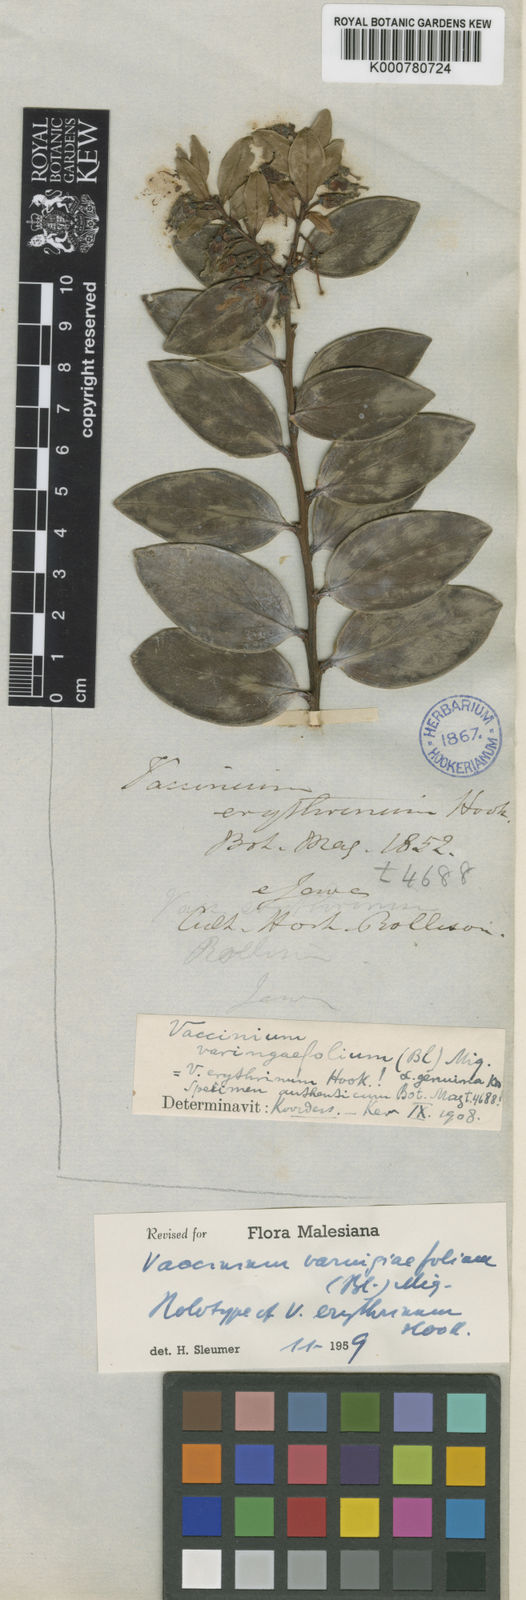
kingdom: Plantae
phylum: Tracheophyta
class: Magnoliopsida
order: Ericales
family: Ericaceae
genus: Vaccinium
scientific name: Vaccinium
